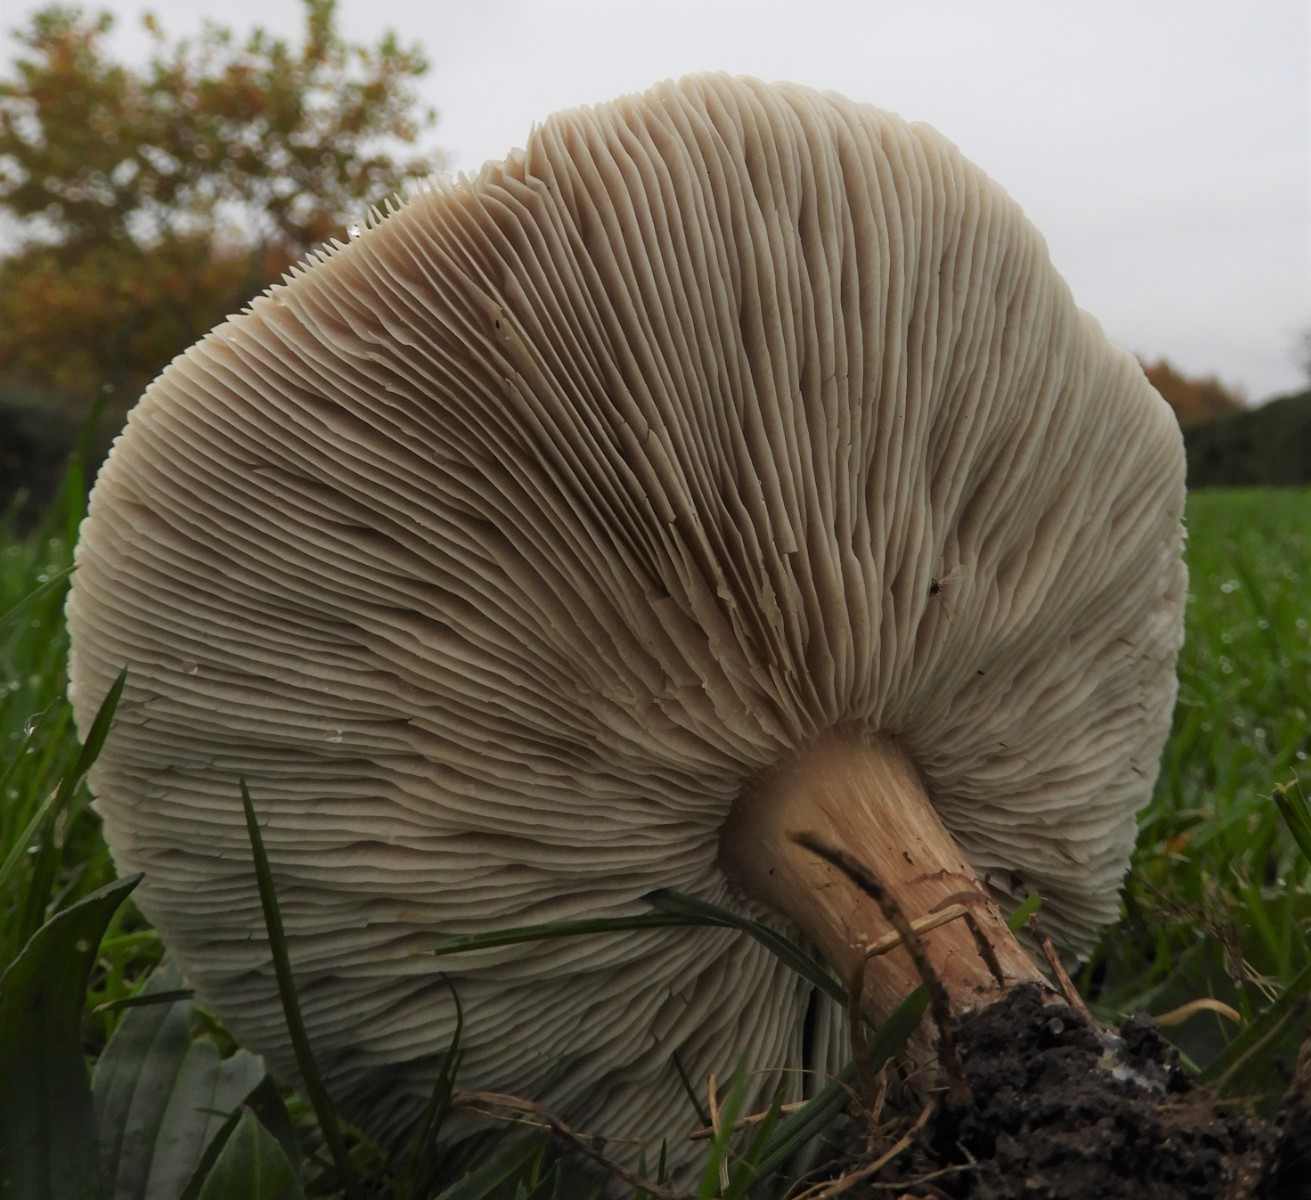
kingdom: Fungi
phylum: Basidiomycota
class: Agaricomycetes
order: Agaricales
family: Tricholomataceae
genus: Melanoleuca
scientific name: Melanoleuca
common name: munkehat
